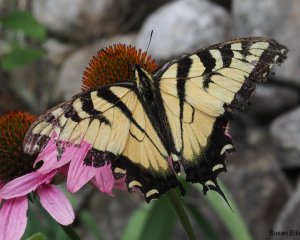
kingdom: Animalia
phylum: Arthropoda
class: Insecta
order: Lepidoptera
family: Papilionidae
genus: Pterourus
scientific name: Pterourus glaucus
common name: Eastern Tiger Swallowtail
